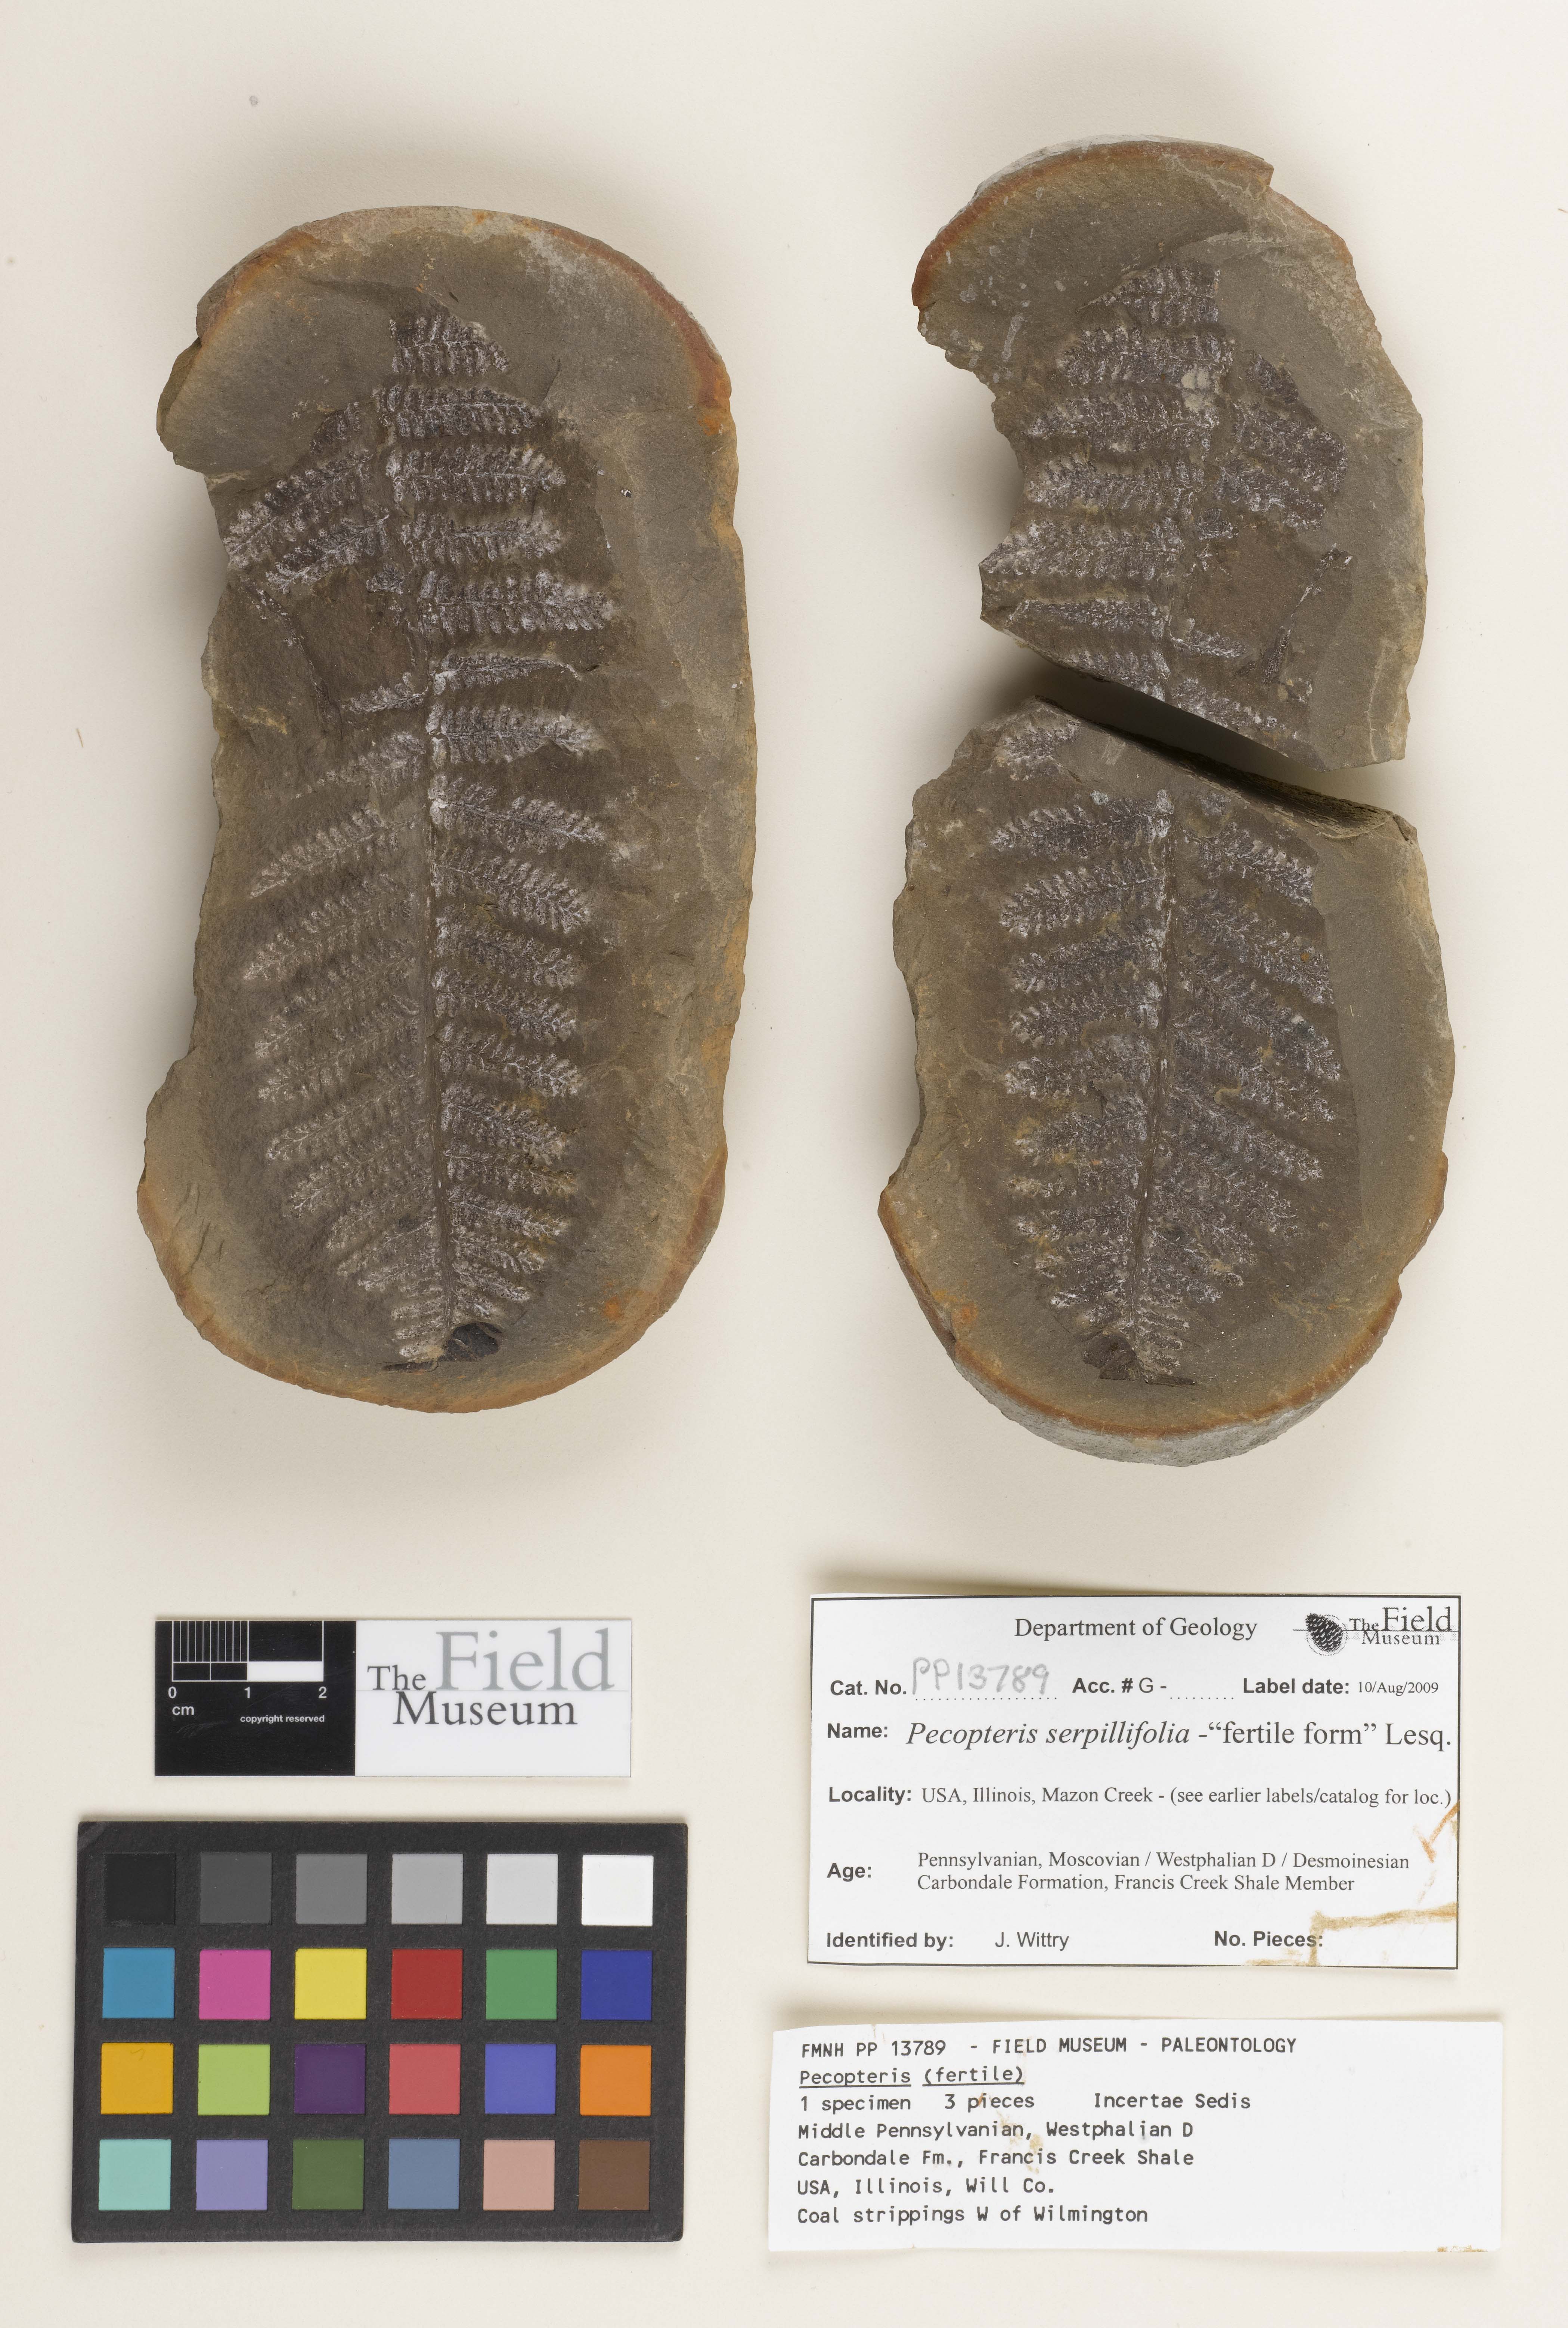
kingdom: Plantae
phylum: Tracheophyta
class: Polypodiopsida
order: Marattiales
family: Asterothecaceae
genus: Pecopteris
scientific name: Pecopteris
